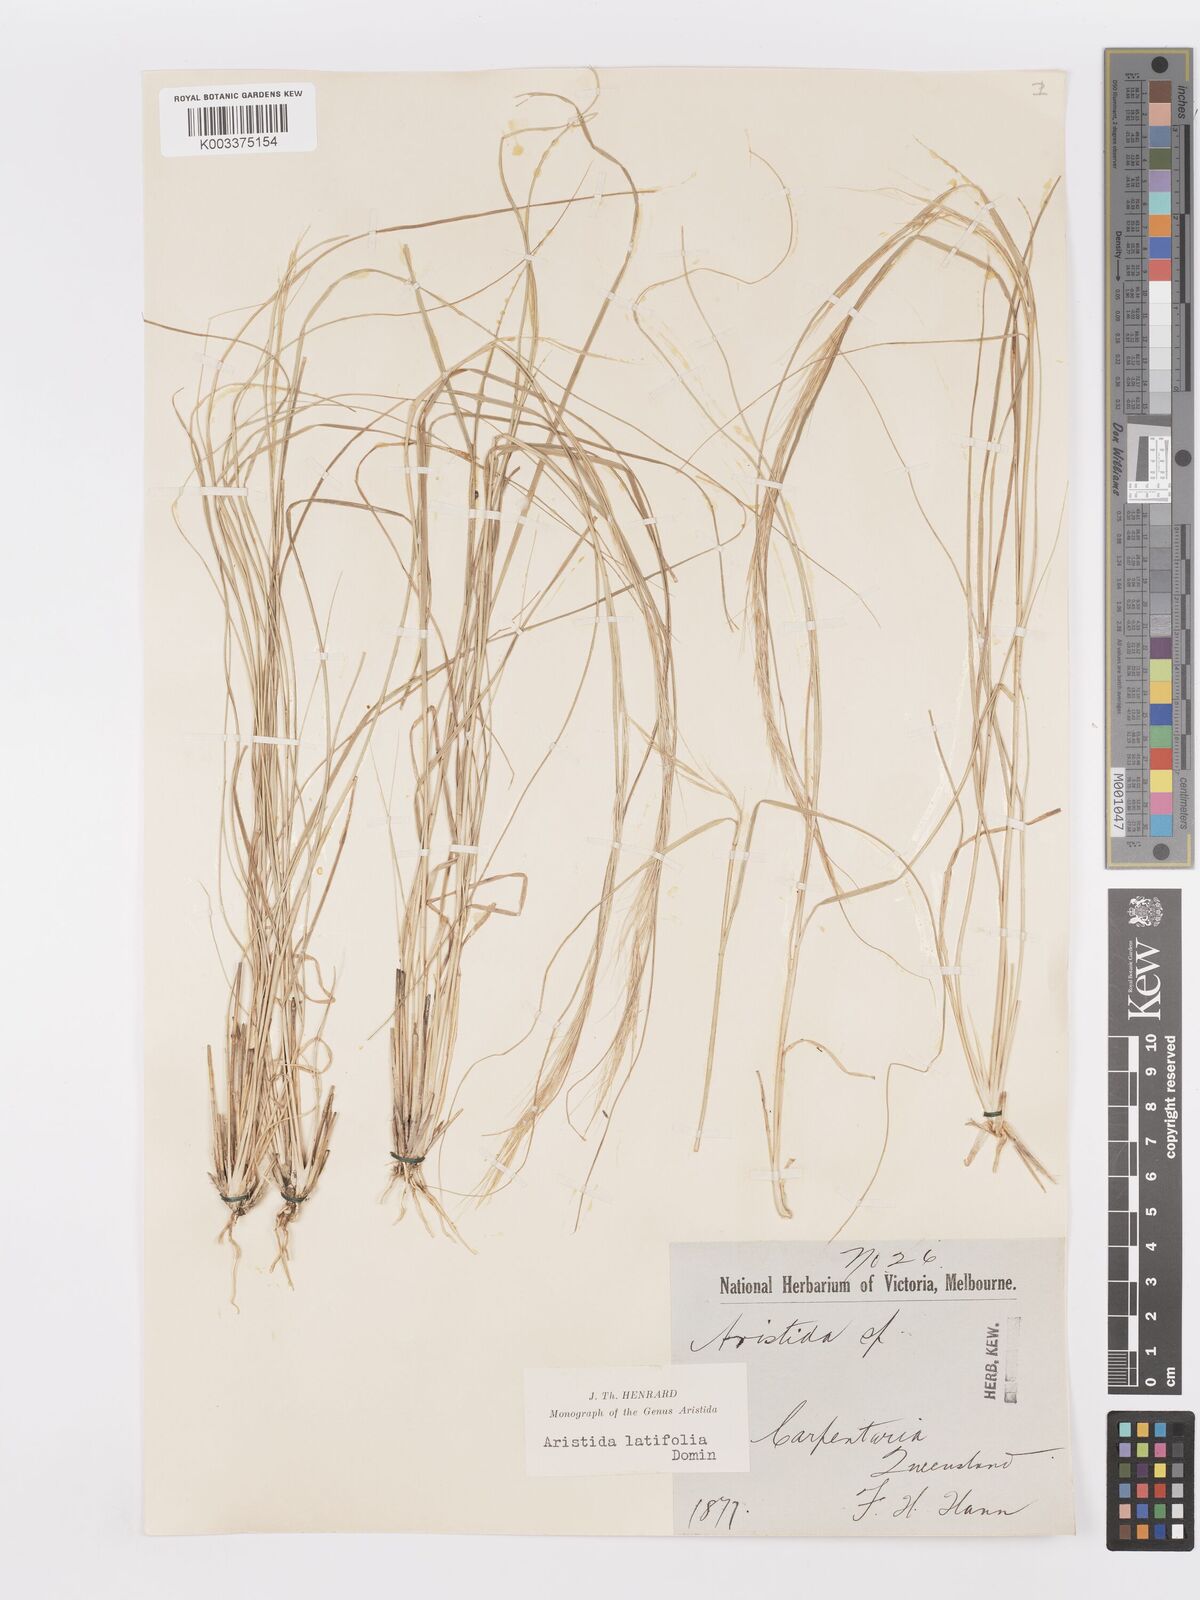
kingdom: Plantae
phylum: Tracheophyta
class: Liliopsida
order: Poales
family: Poaceae
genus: Aristida
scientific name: Aristida latifolia
